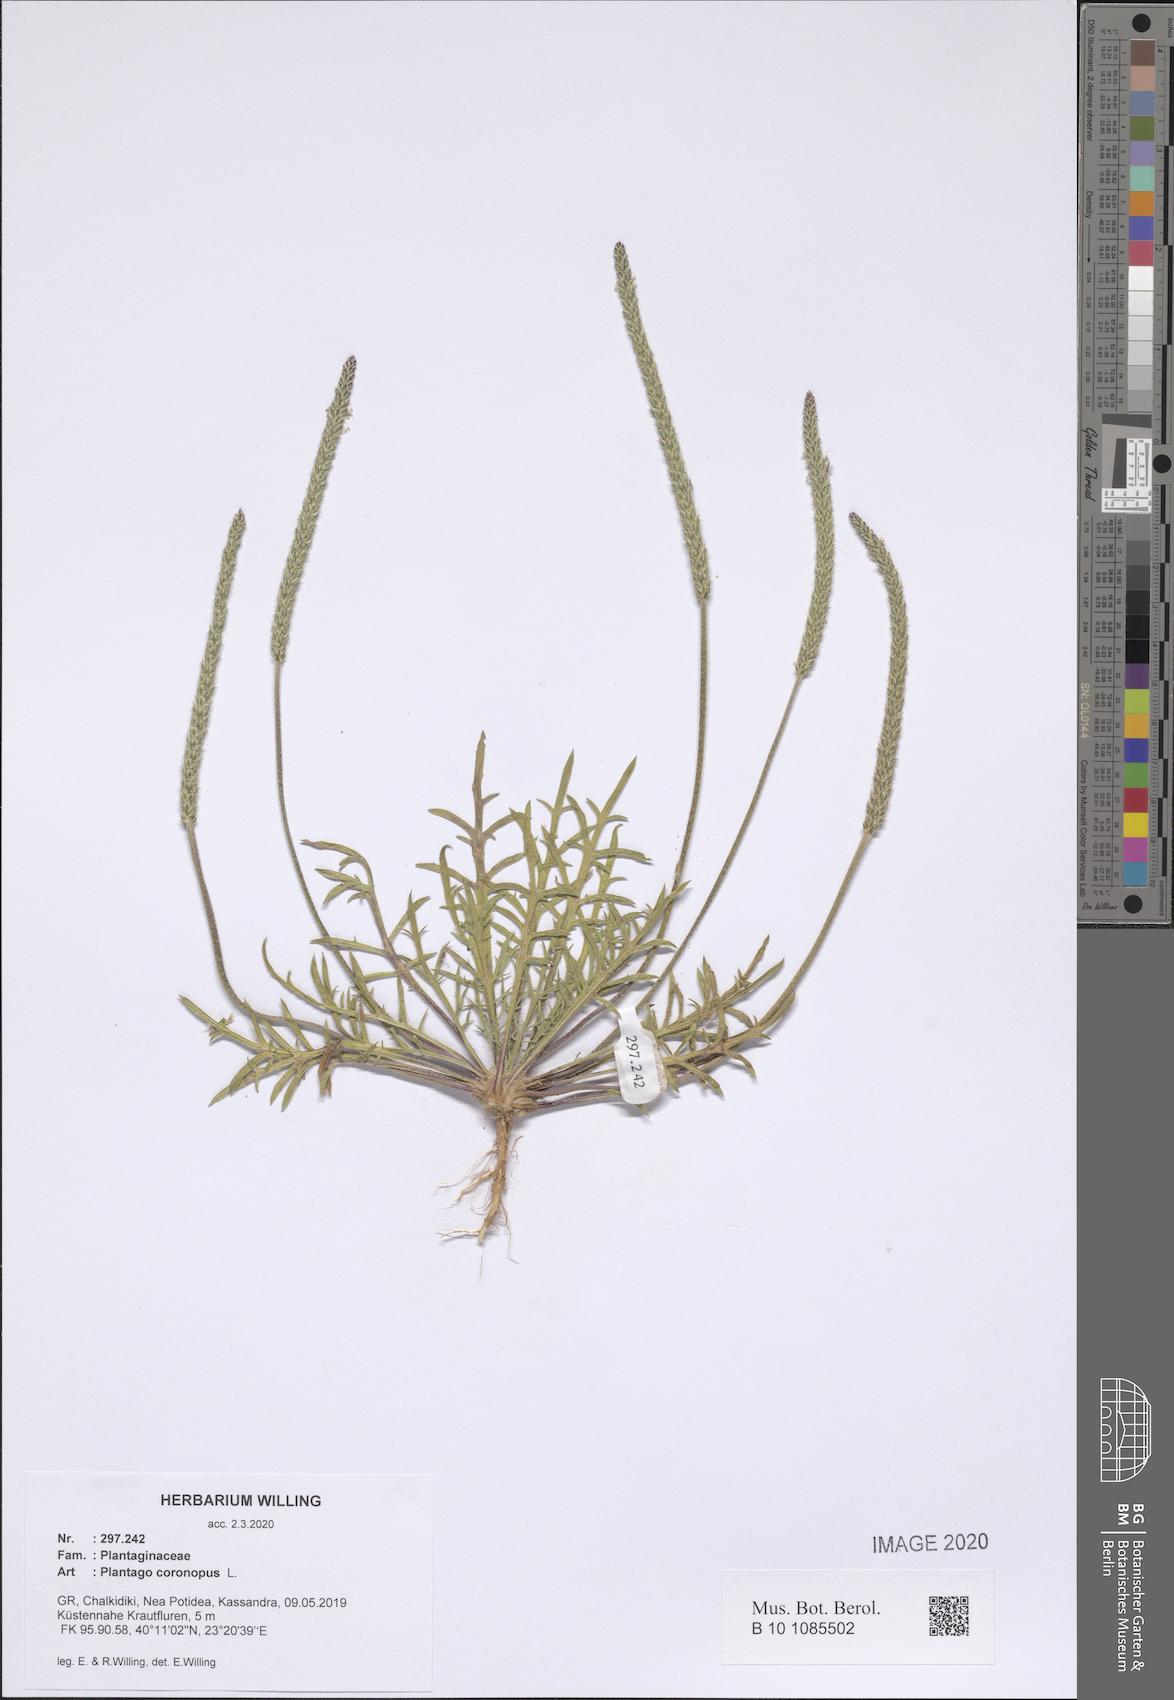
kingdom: Plantae
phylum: Tracheophyta
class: Magnoliopsida
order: Lamiales
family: Plantaginaceae
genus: Plantago
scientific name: Plantago coronopus
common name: Buck's-horn plantain
